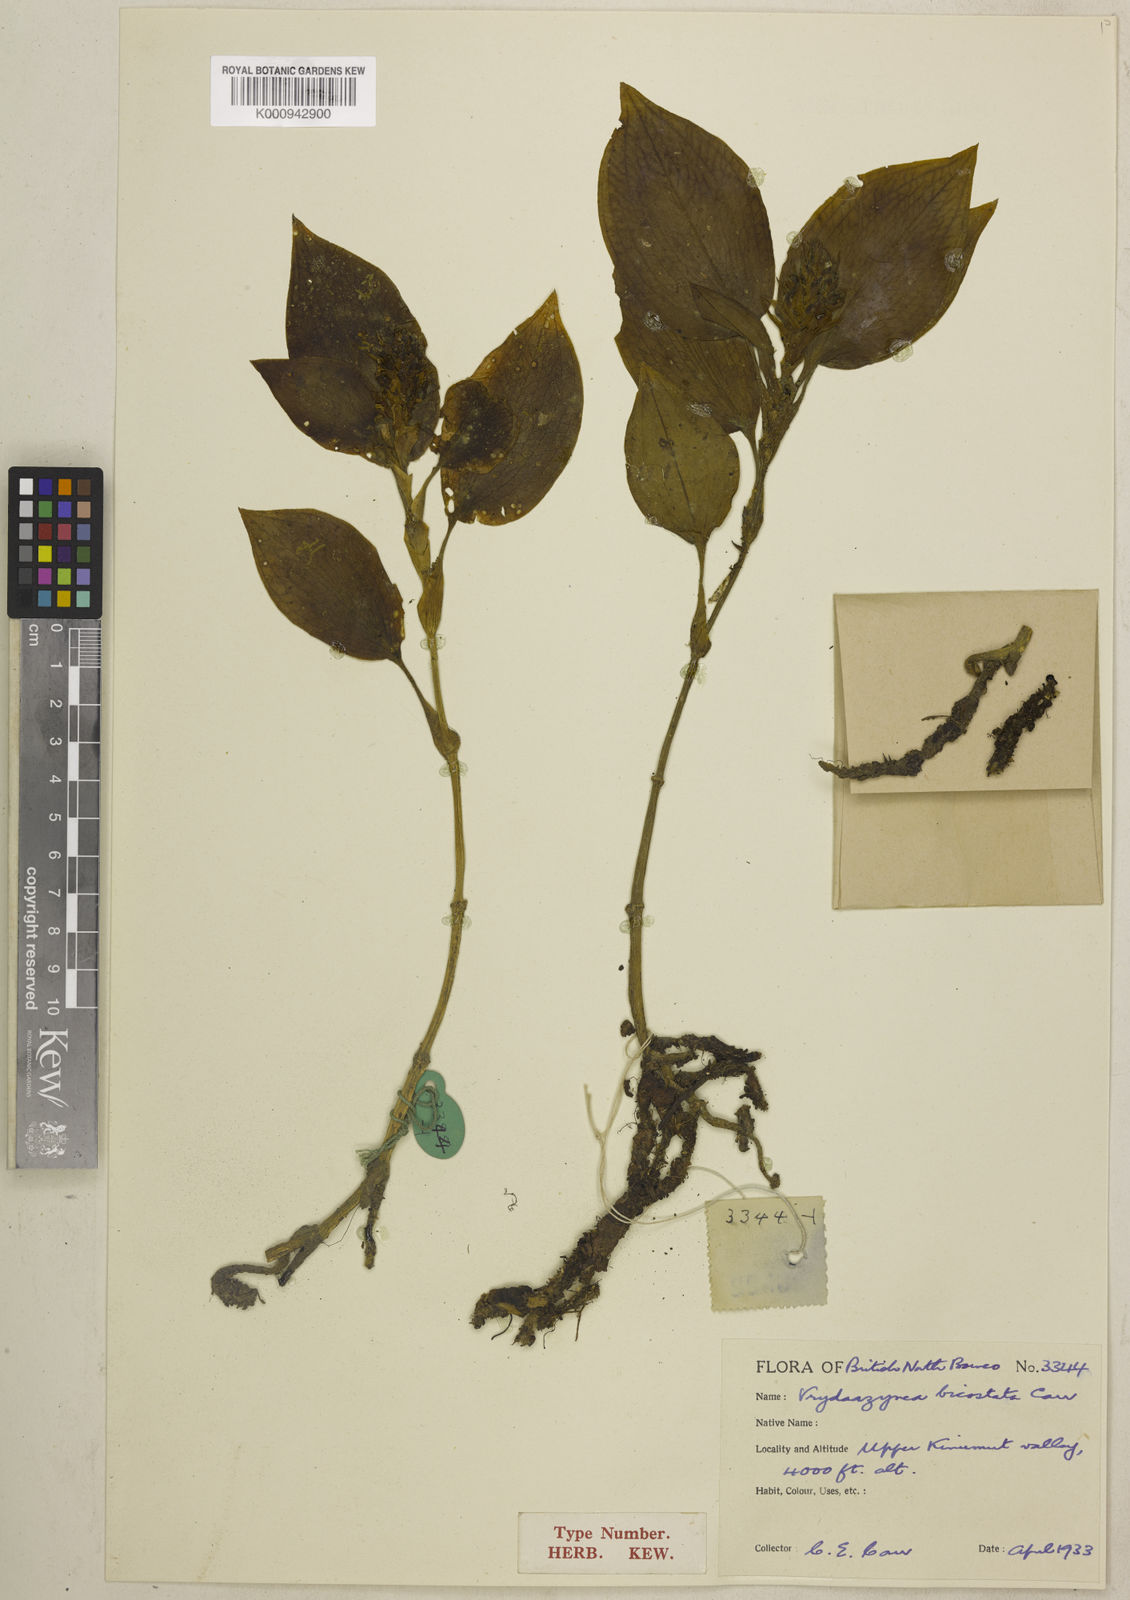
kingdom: Plantae
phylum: Tracheophyta
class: Liliopsida
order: Asparagales
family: Orchidaceae
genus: Vrydagzynea
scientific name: Vrydagzynea bicostata
